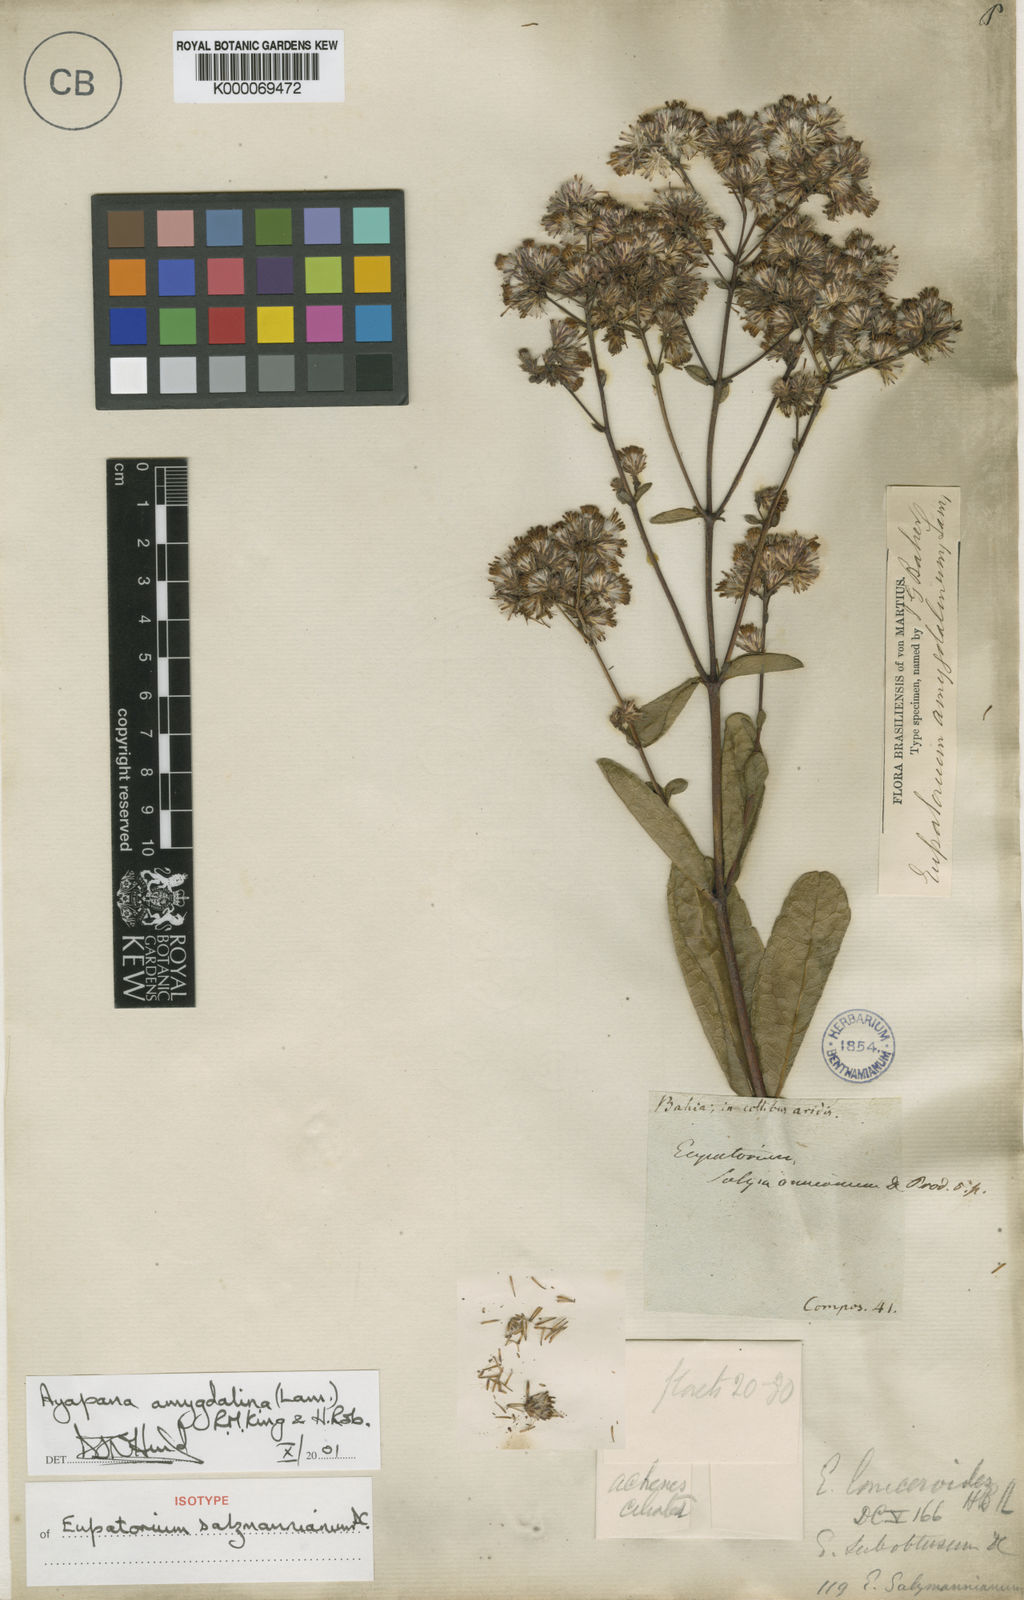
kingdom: Plantae
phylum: Tracheophyta
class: Magnoliopsida
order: Asterales
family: Asteraceae
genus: Ayapana
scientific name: Ayapana amygdalina
